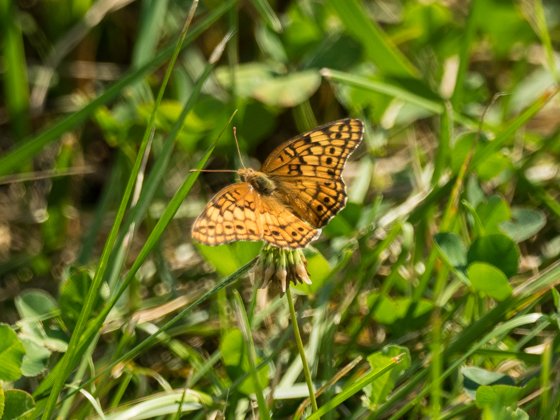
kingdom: Animalia
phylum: Arthropoda
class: Insecta
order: Lepidoptera
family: Nymphalidae
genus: Euptoieta
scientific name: Euptoieta claudia
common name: Variegated Fritillary
